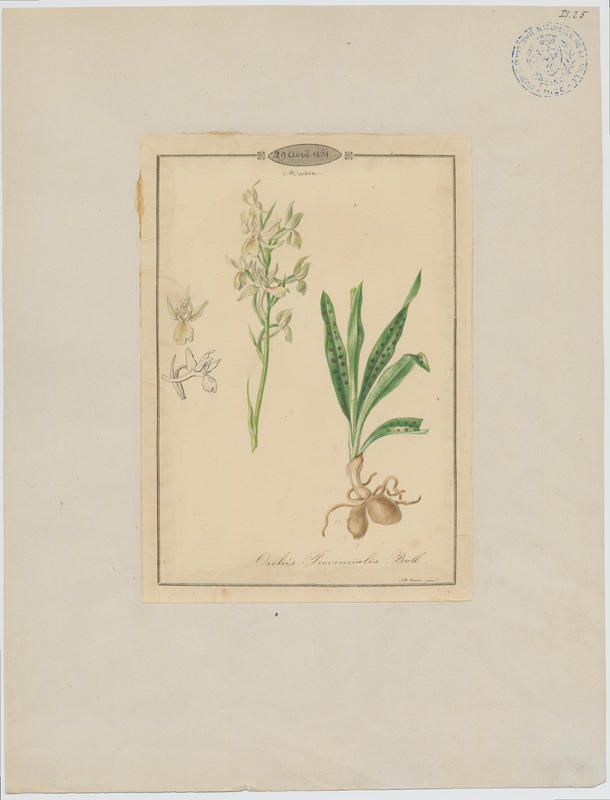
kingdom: Plantae
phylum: Tracheophyta
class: Liliopsida
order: Asparagales
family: Orchidaceae
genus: Orchis
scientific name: Orchis provincialis
